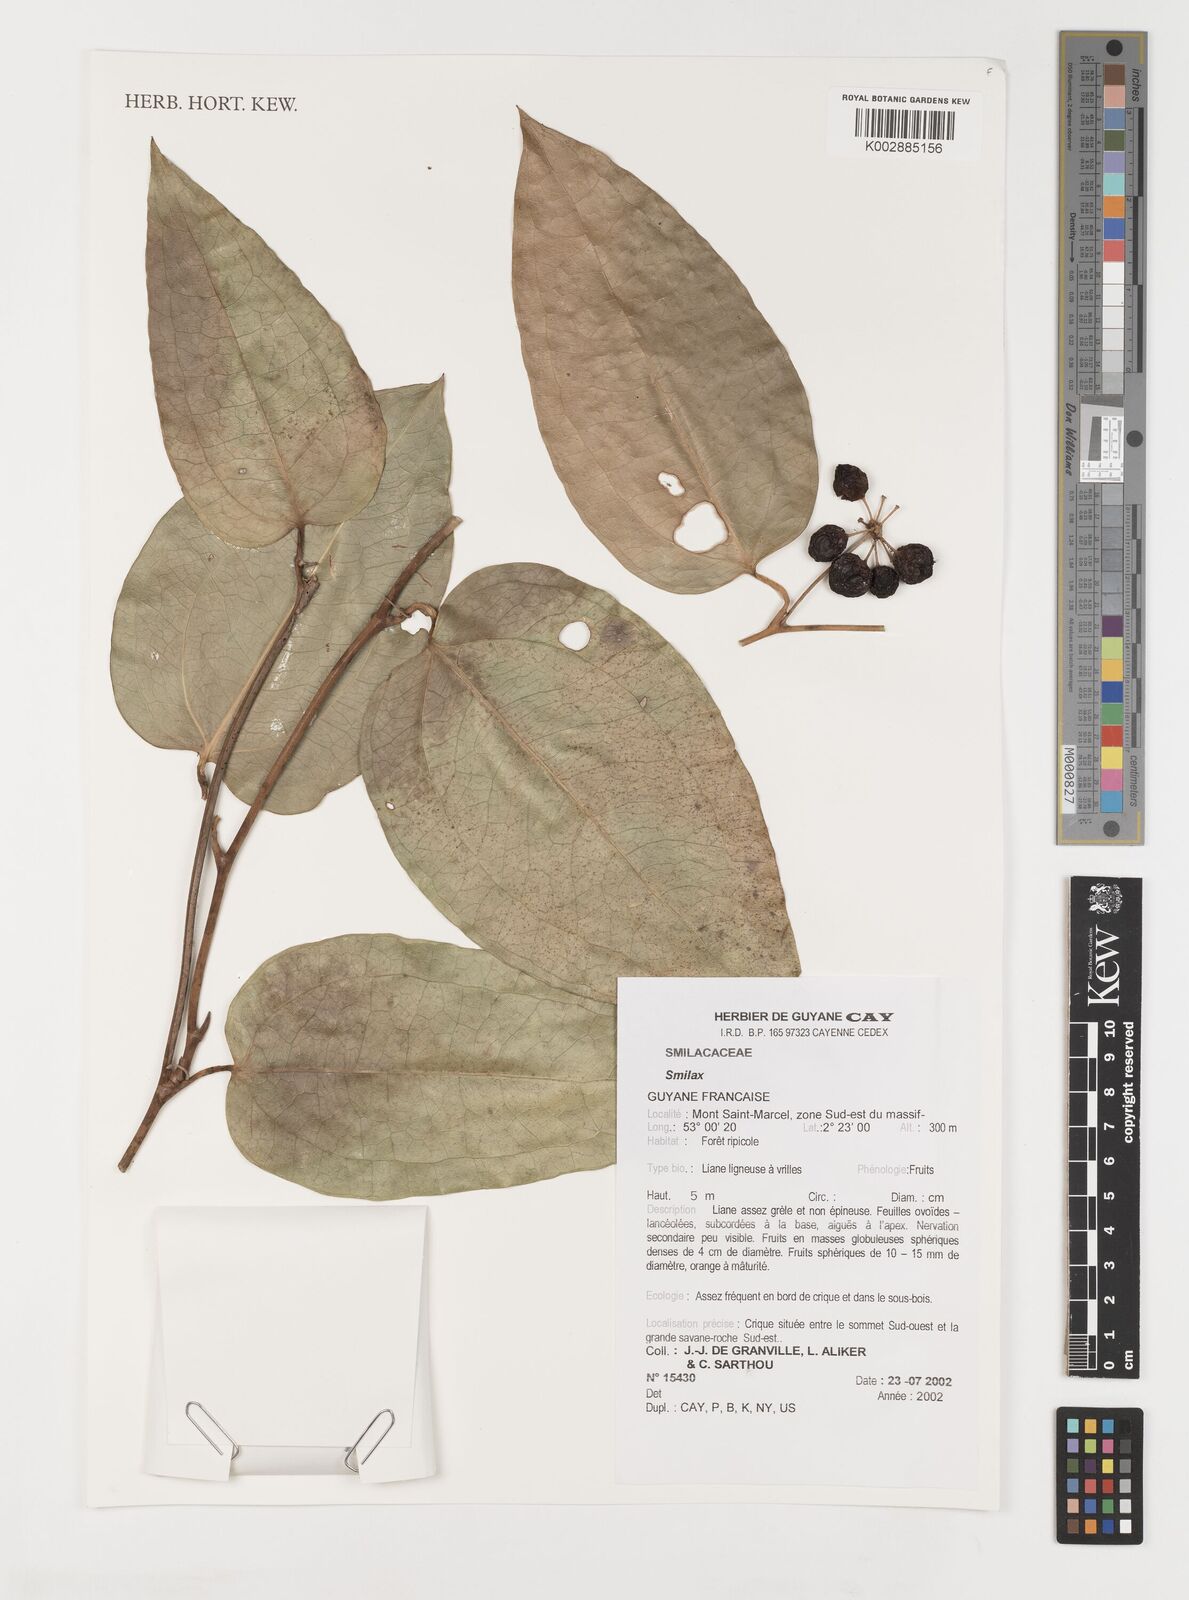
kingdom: Plantae
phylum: Tracheophyta
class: Liliopsida
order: Liliales
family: Smilacaceae
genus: Smilax
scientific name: Smilax
